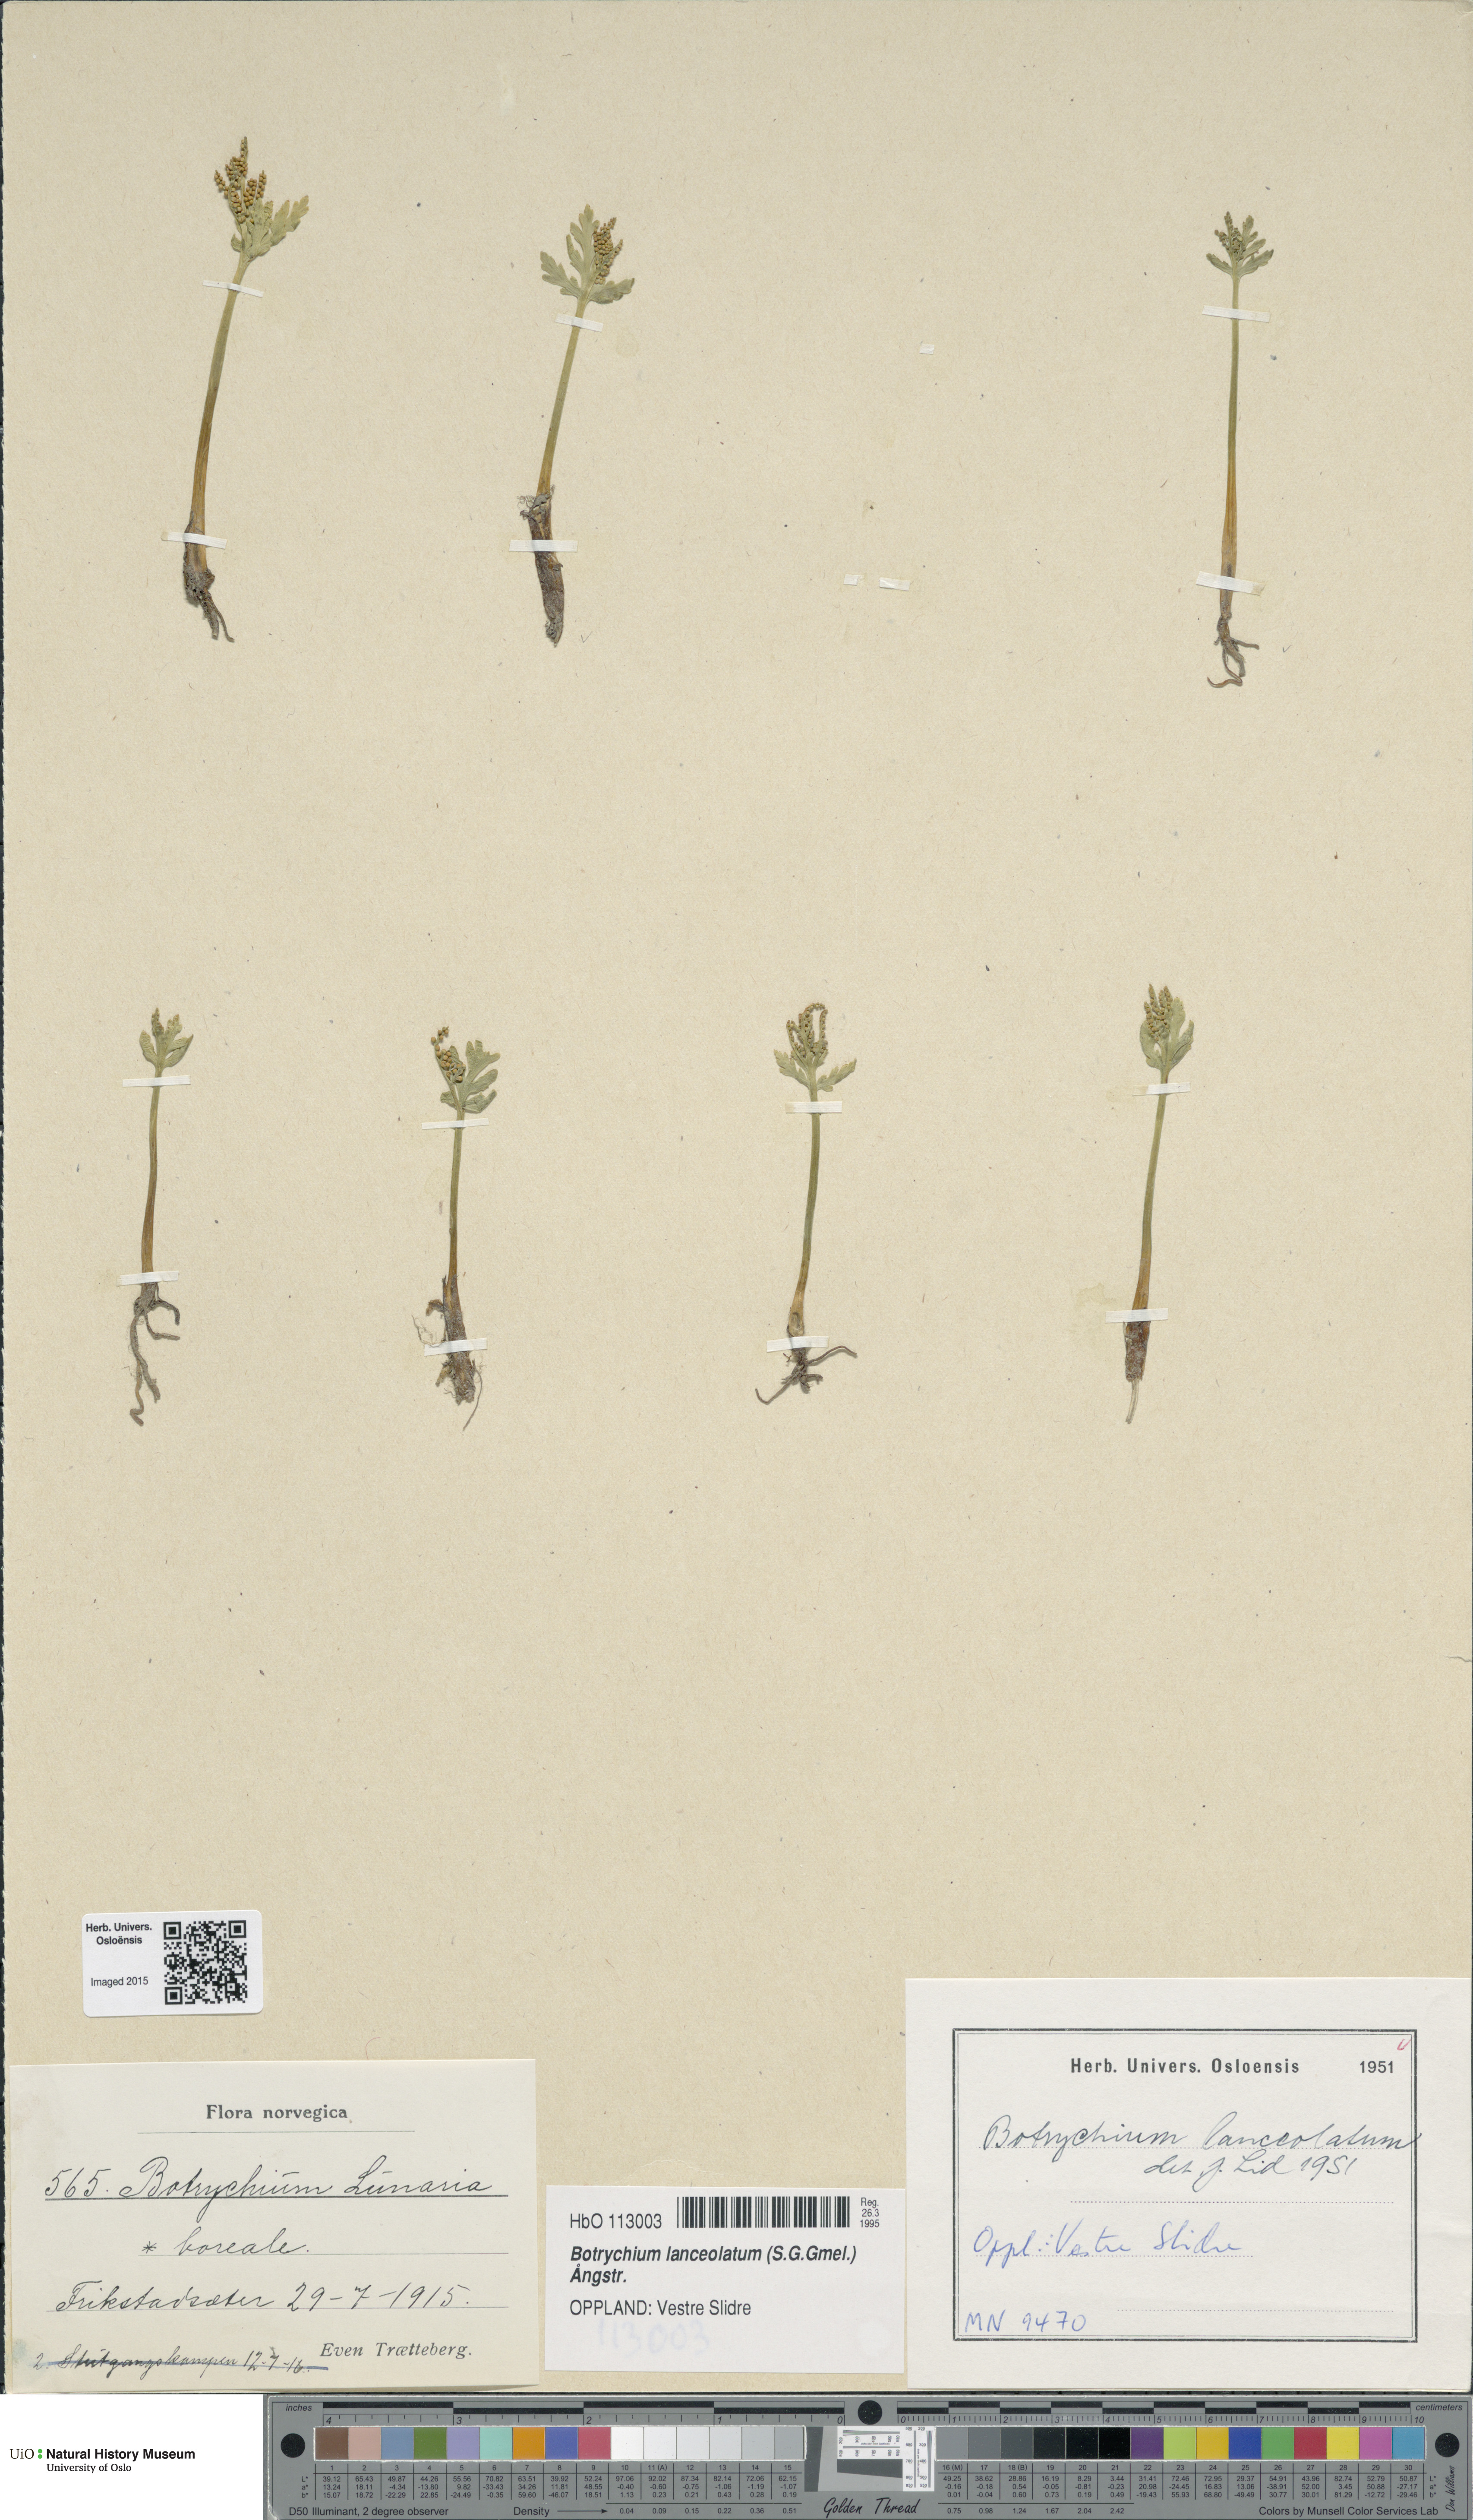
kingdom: Plantae
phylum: Tracheophyta
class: Polypodiopsida
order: Ophioglossales
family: Ophioglossaceae
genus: Botrychium
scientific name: Botrychium lanceolatum
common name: Lance-leaved moonwort
